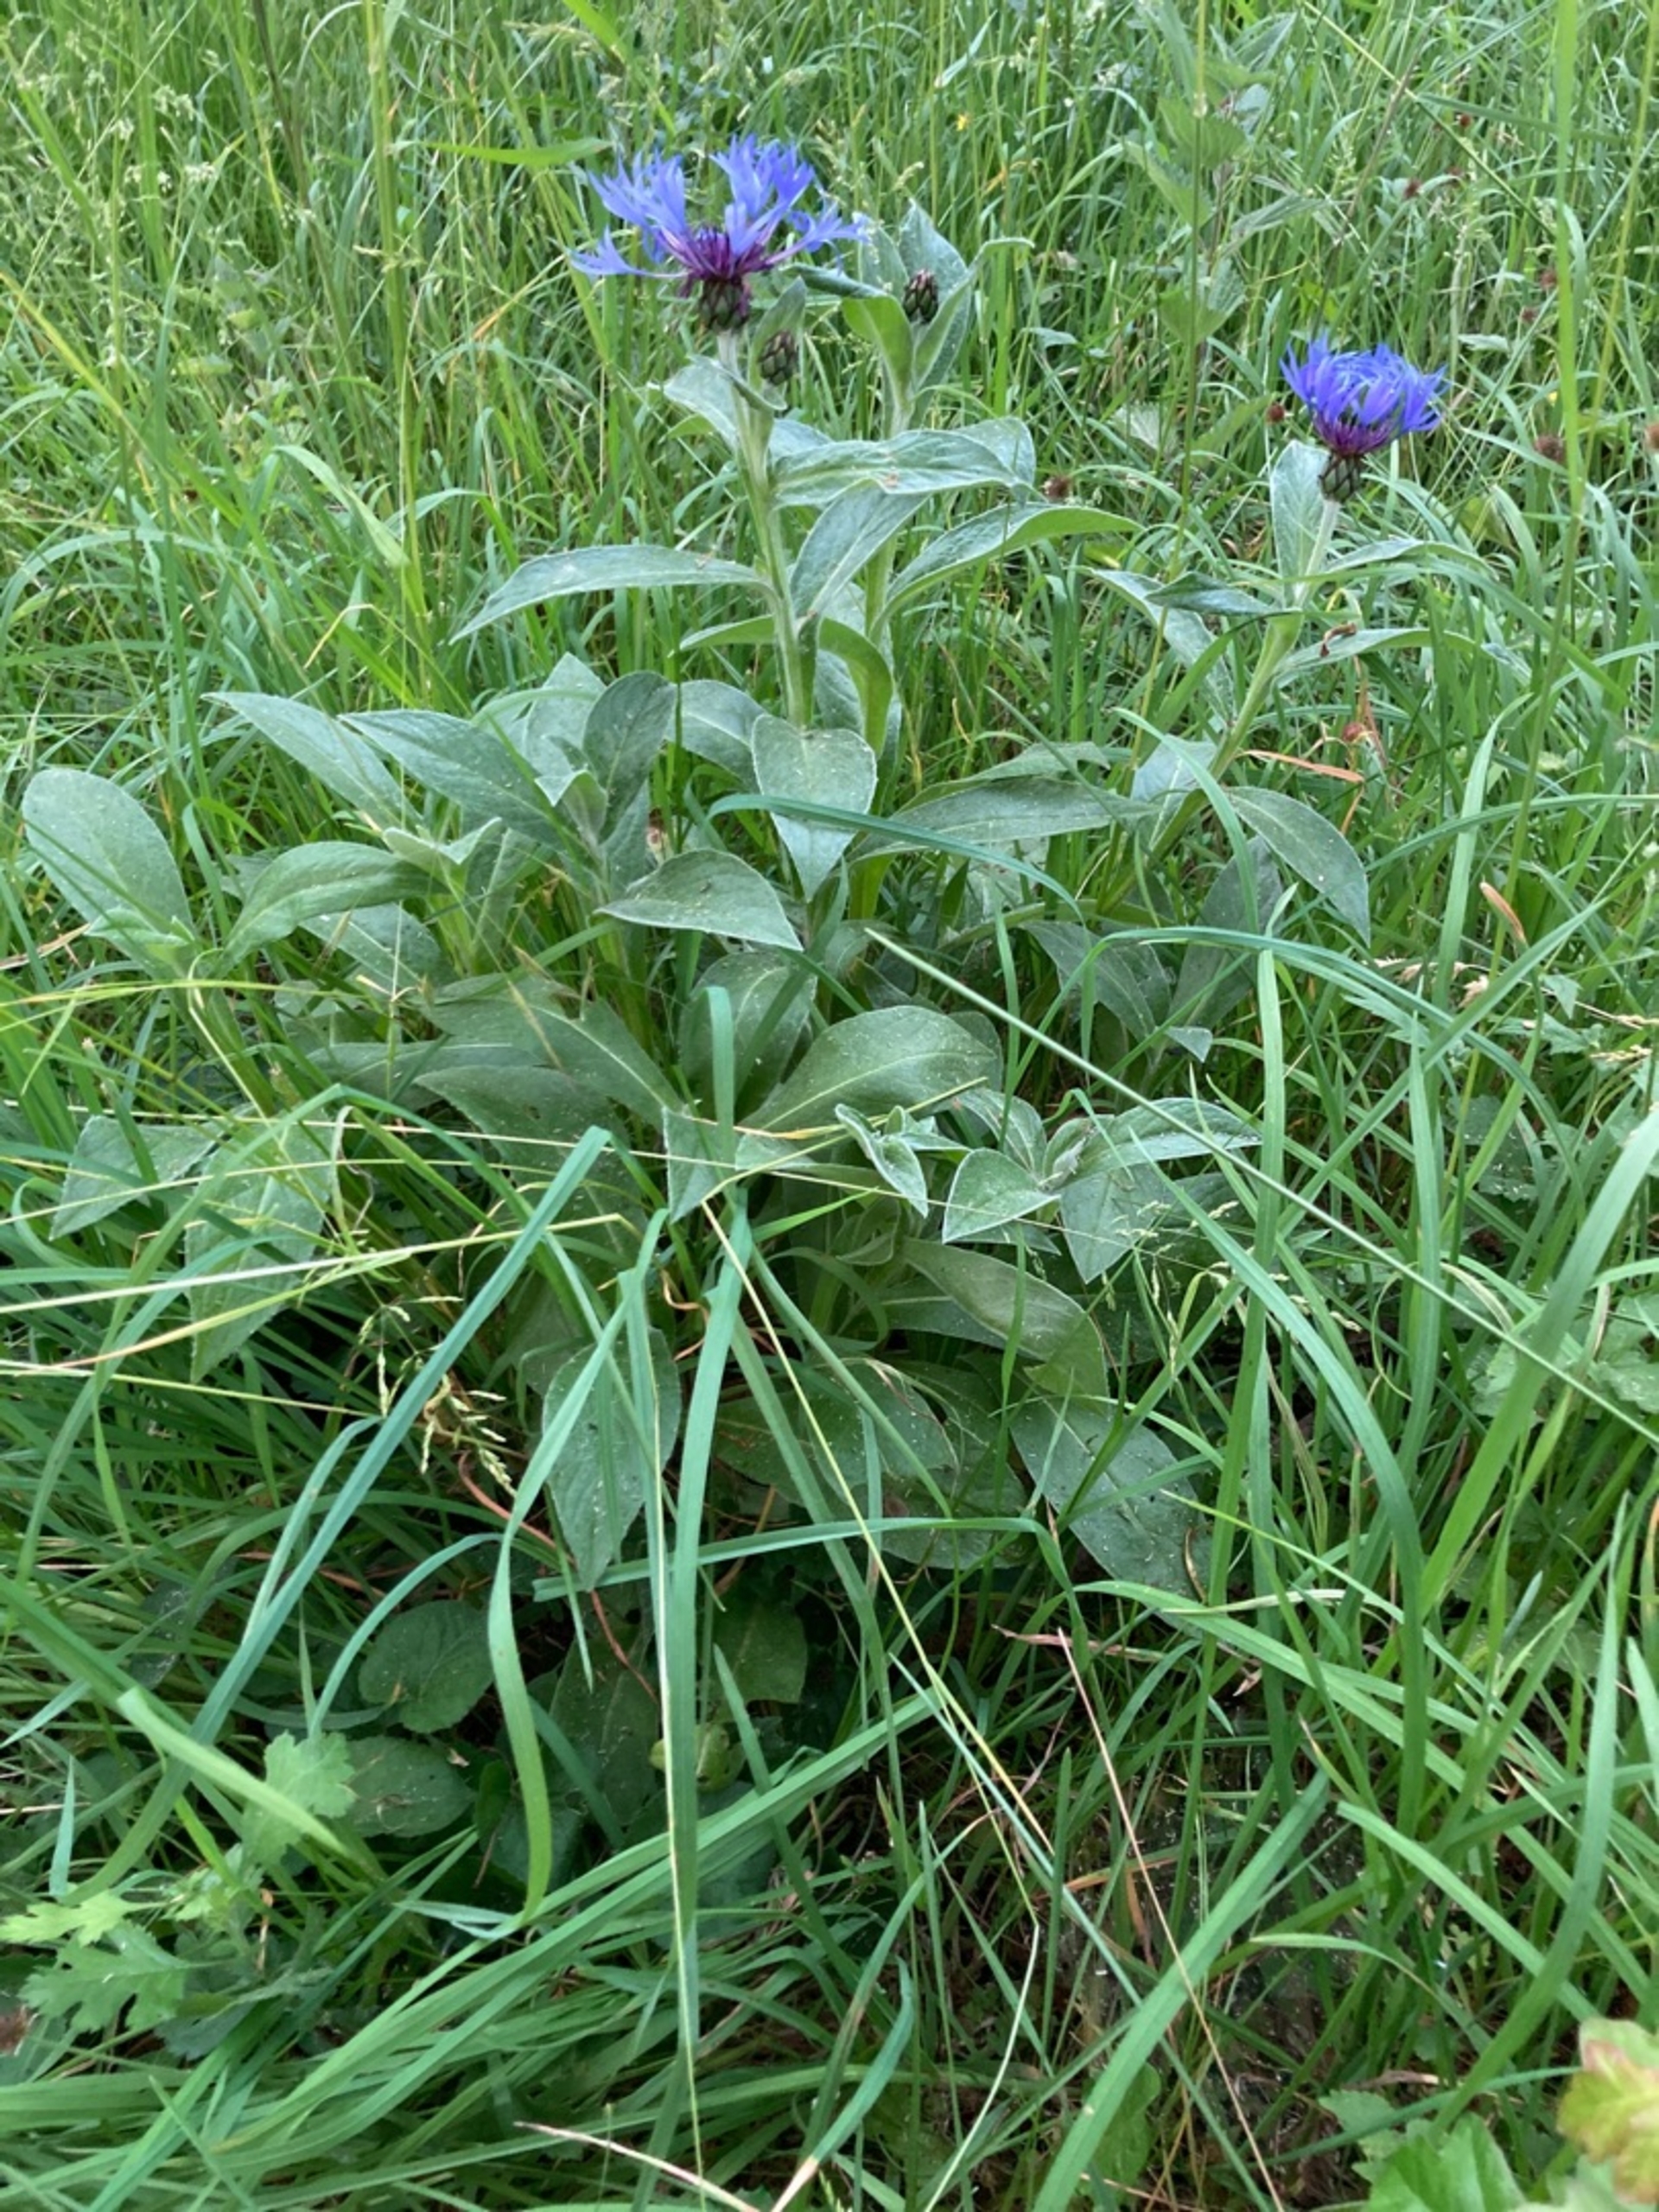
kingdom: Plantae
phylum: Tracheophyta
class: Magnoliopsida
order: Asterales
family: Asteraceae
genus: Centaurea
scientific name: Centaurea montana
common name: Bjerg-knopurt
